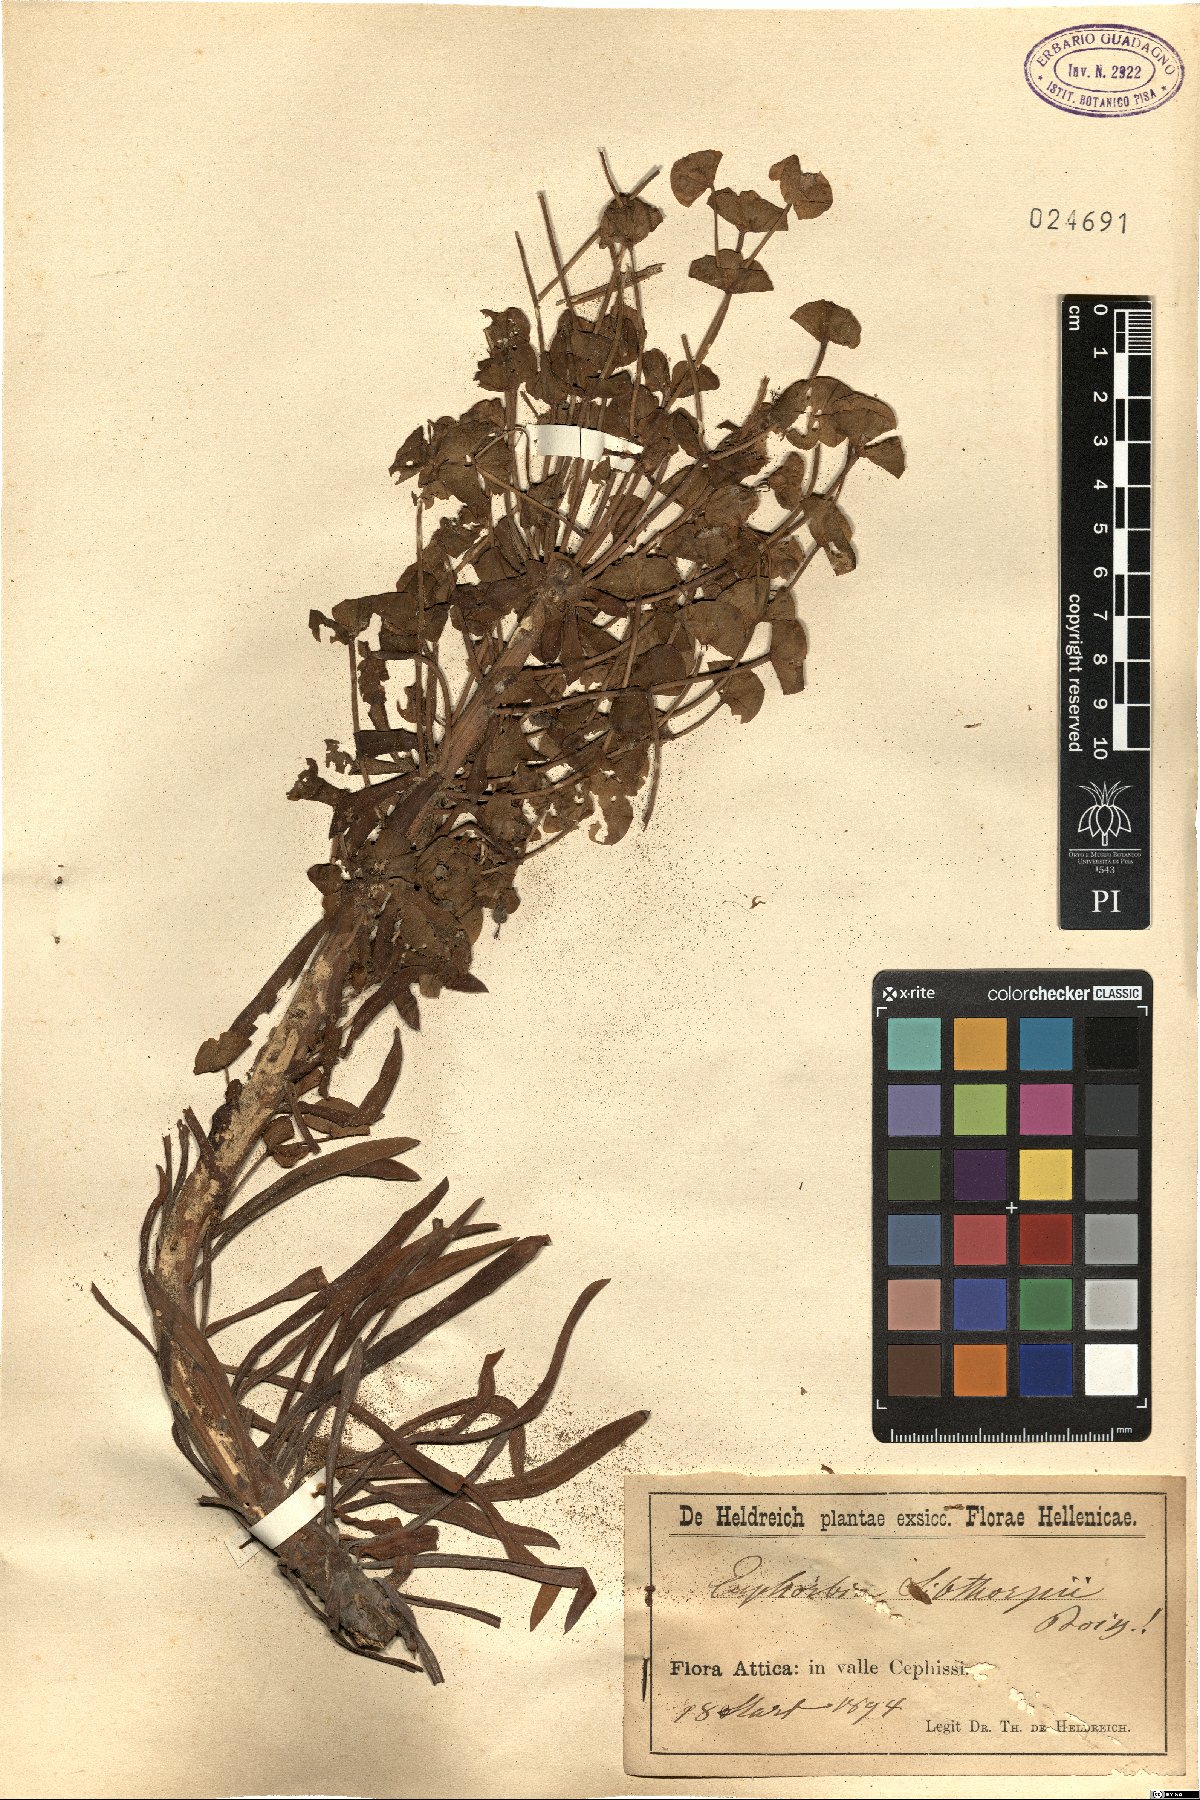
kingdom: Plantae
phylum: Tracheophyta
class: Magnoliopsida
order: Malpighiales
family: Euphorbiaceae
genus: Euphorbia
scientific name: Euphorbia characias
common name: Mediterranean spurge
